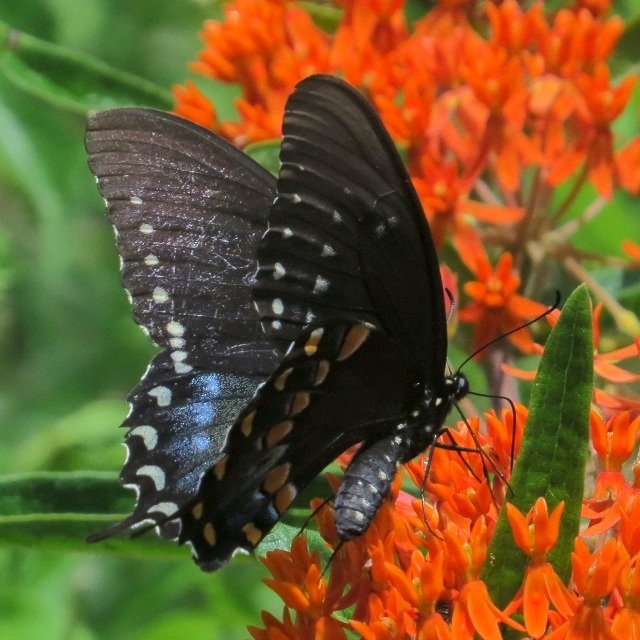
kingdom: Animalia
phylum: Arthropoda
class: Insecta
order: Lepidoptera
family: Papilionidae
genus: Pterourus
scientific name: Pterourus troilus
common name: Spicebush Swallowtail
